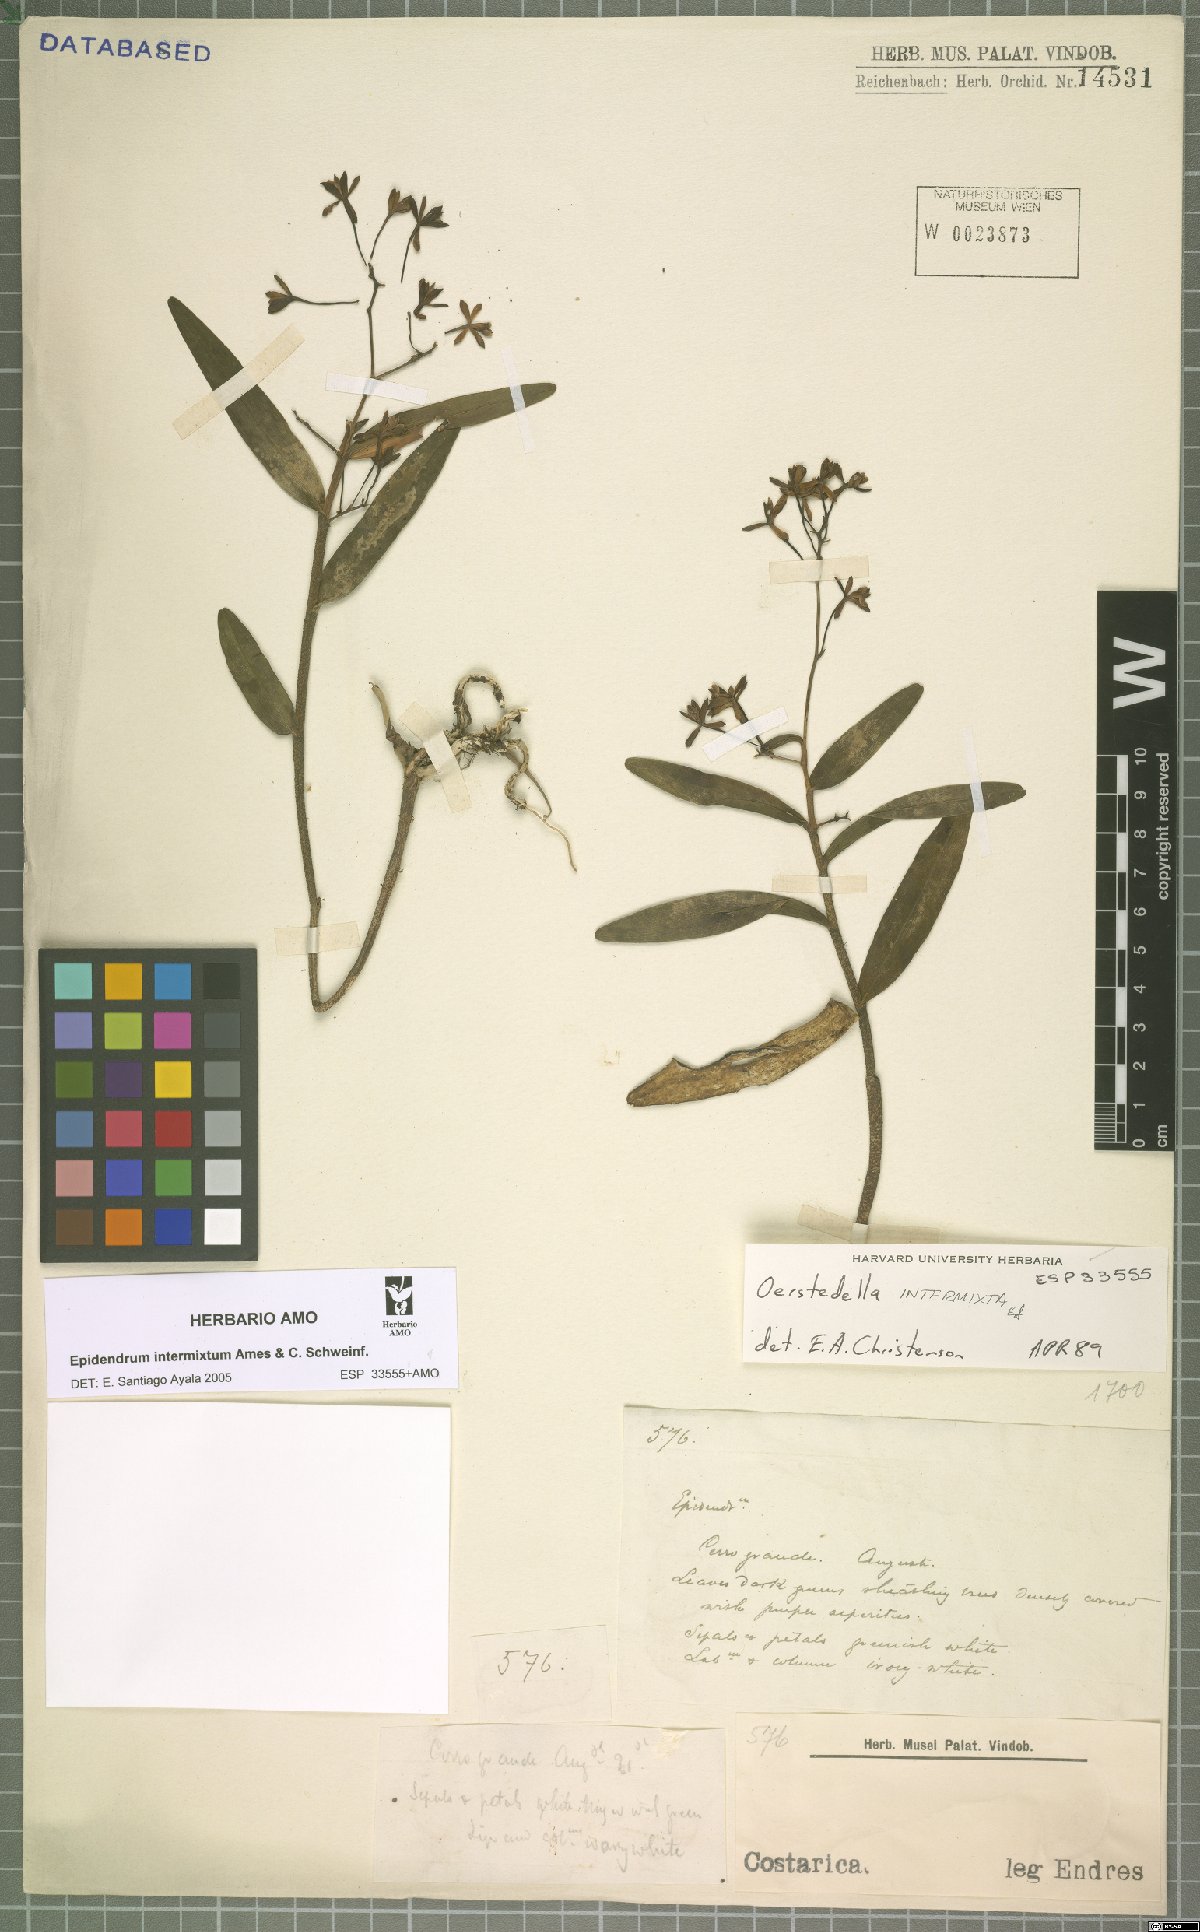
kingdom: Plantae
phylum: Tracheophyta
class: Liliopsida
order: Asparagales
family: Orchidaceae
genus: Epidendrum
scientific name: Epidendrum intermixtum
